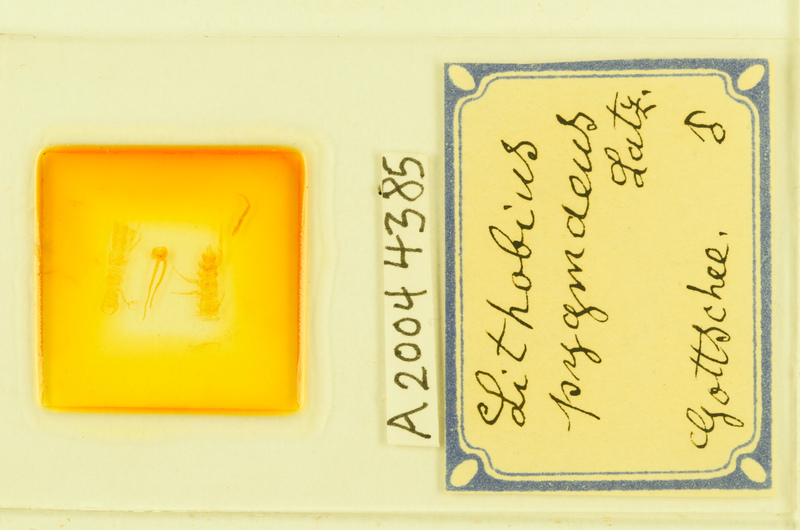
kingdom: Animalia
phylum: Arthropoda
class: Chilopoda
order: Lithobiomorpha
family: Lithobiidae
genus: Lithobius
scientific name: Lithobius pygmaeus
